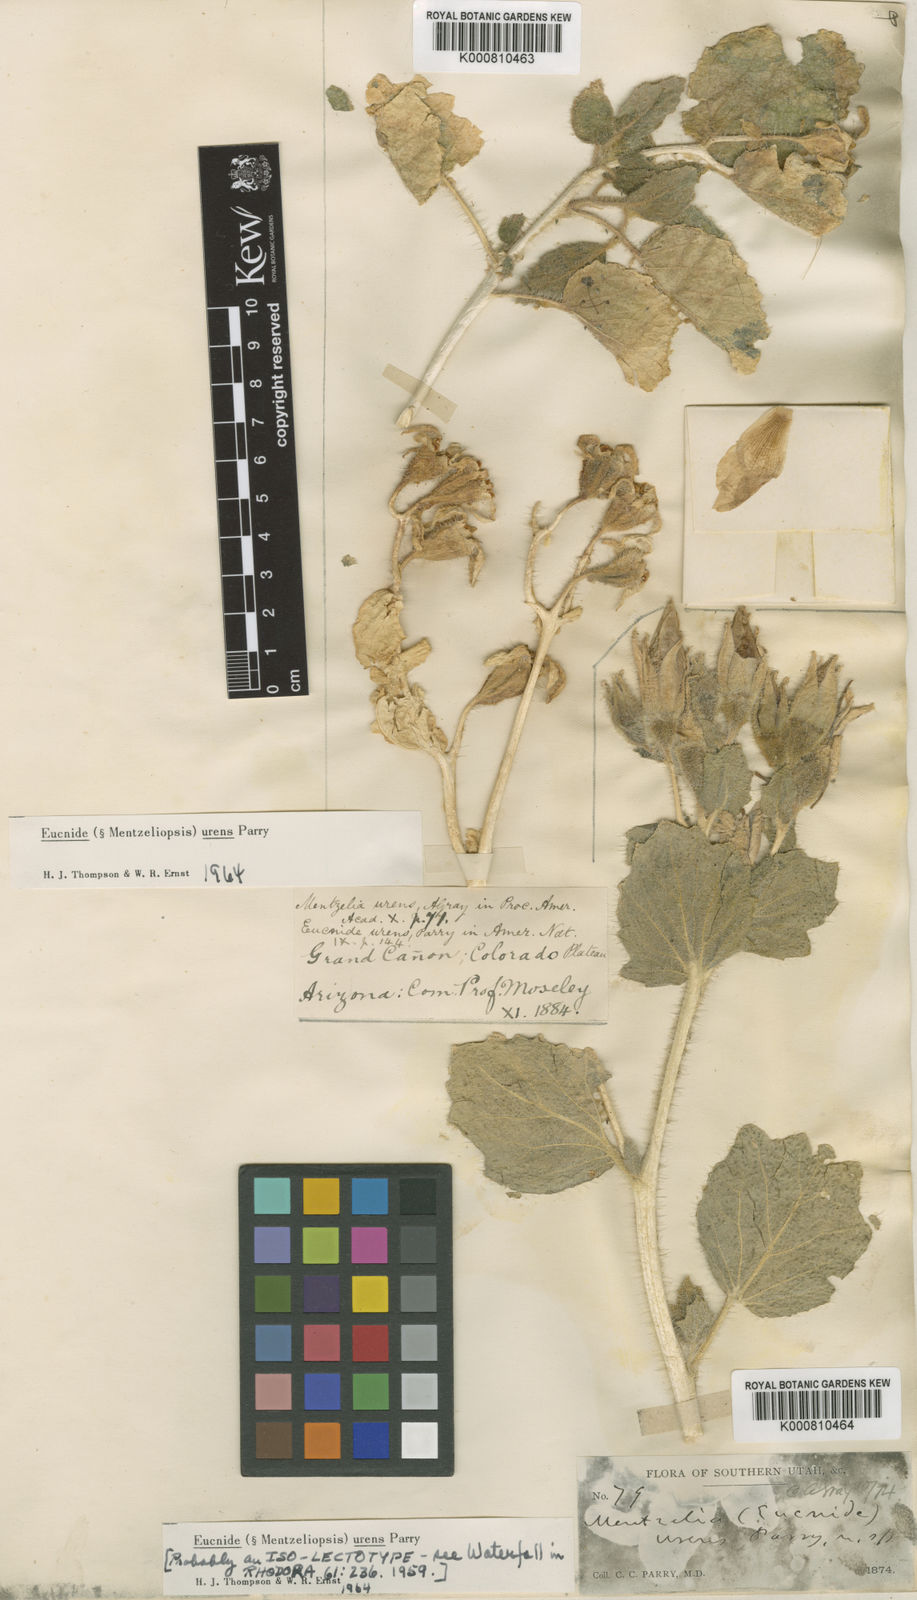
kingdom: Plantae
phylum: Tracheophyta
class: Magnoliopsida
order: Cornales
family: Loasaceae
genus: Eucnide
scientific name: Eucnide
